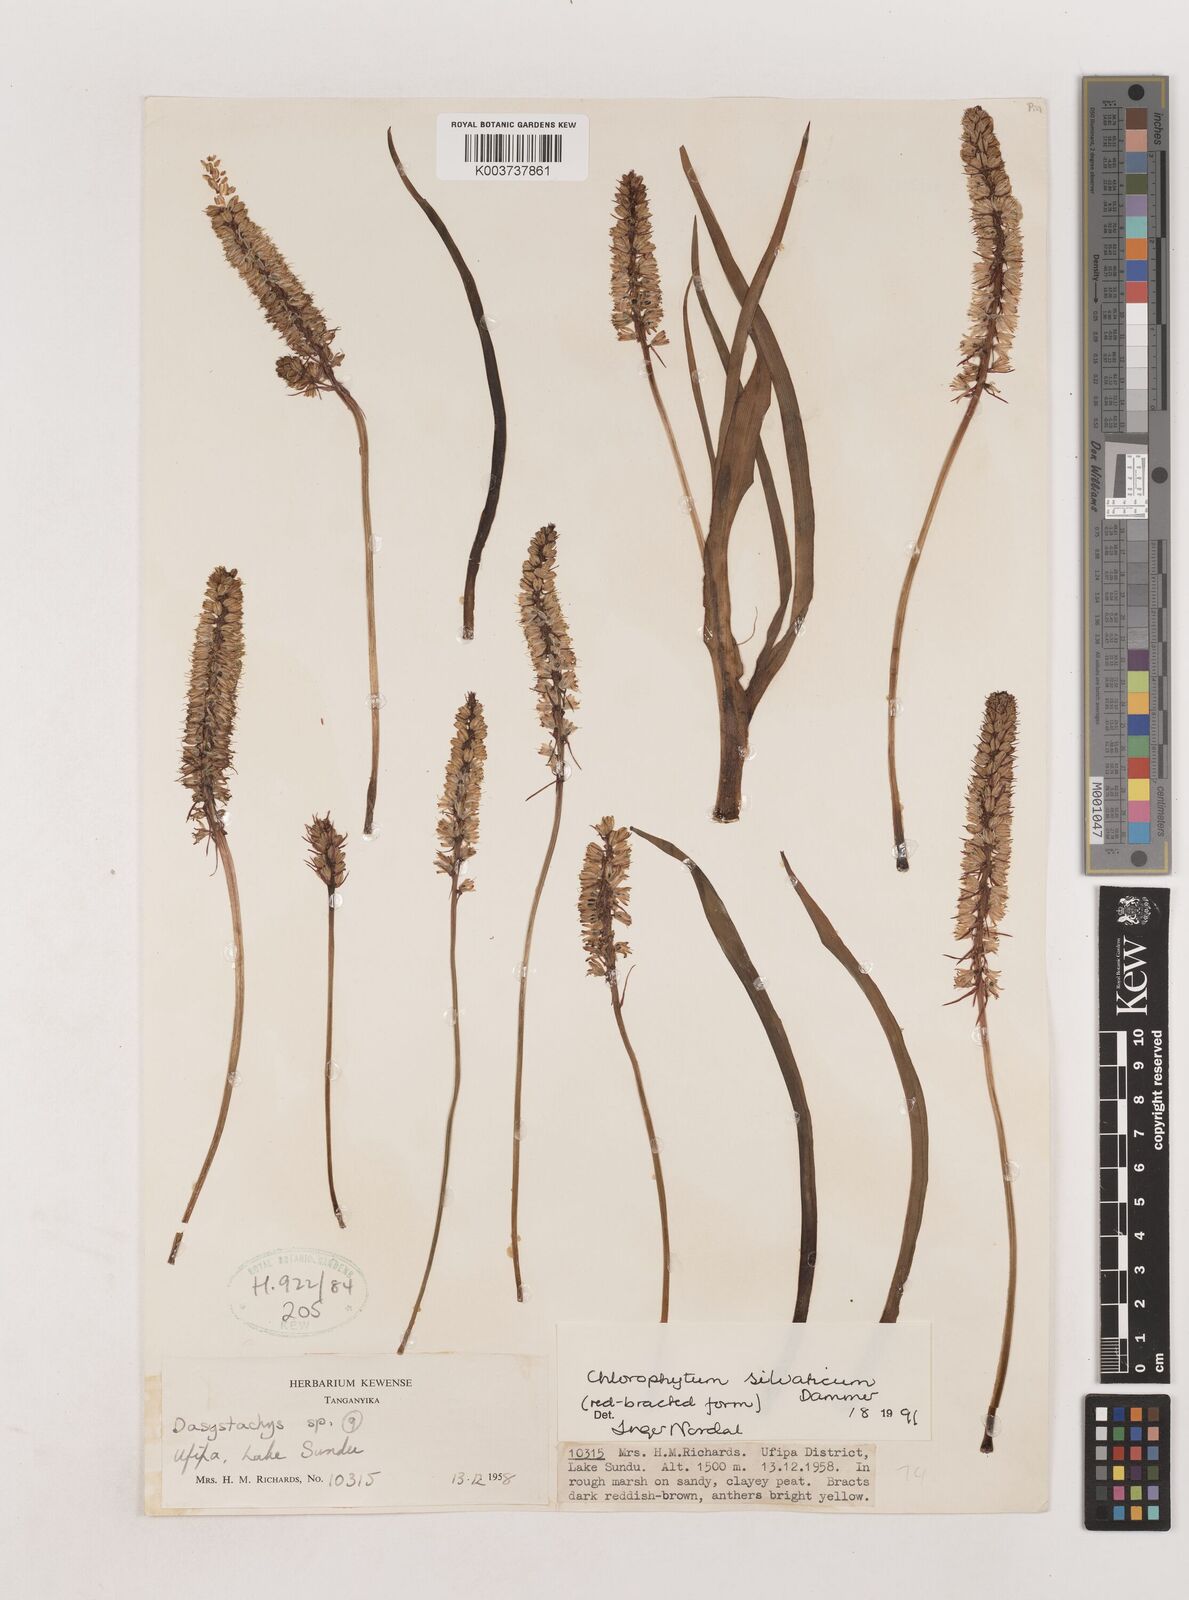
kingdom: Plantae
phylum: Tracheophyta
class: Liliopsida
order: Asparagales
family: Asparagaceae
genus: Chlorophytum
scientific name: Chlorophytum africanum
